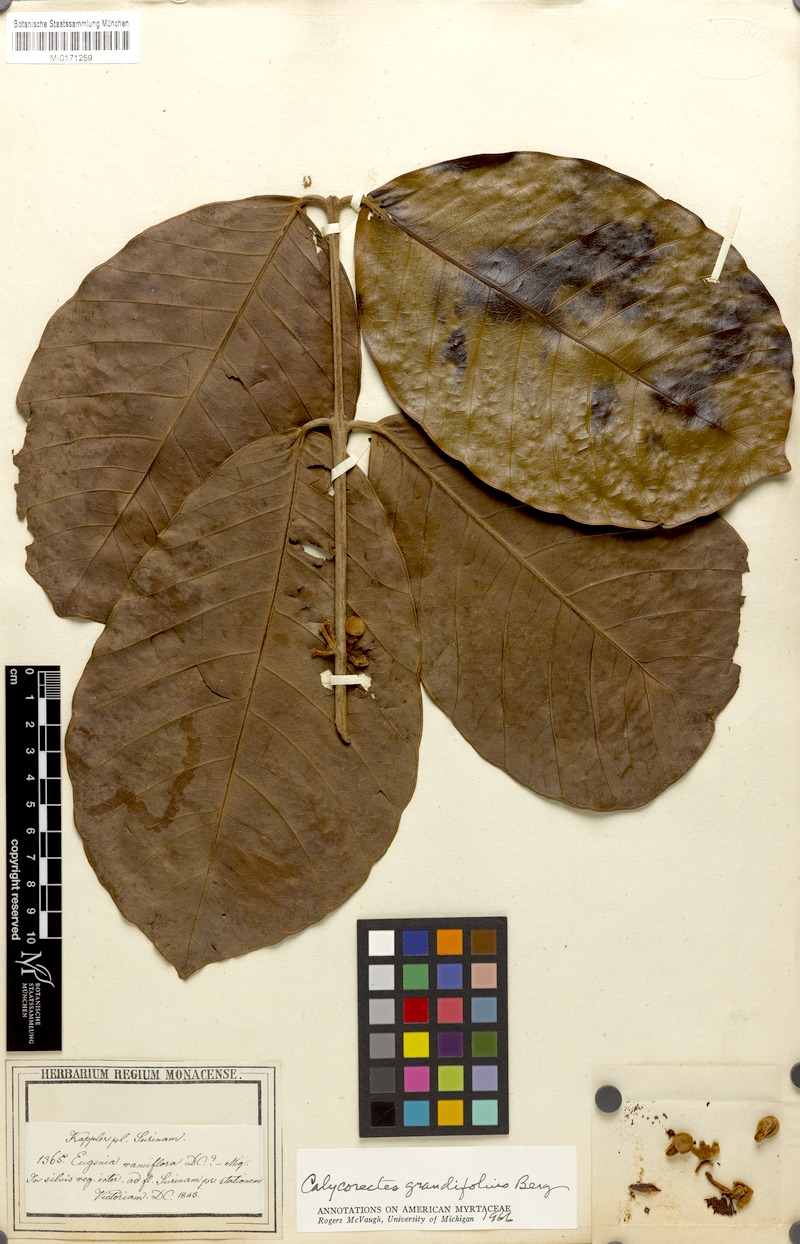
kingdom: Plantae
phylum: Tracheophyta
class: Magnoliopsida
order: Myrtales
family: Myrtaceae
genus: Calycorectes
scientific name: Calycorectes grandifolius
